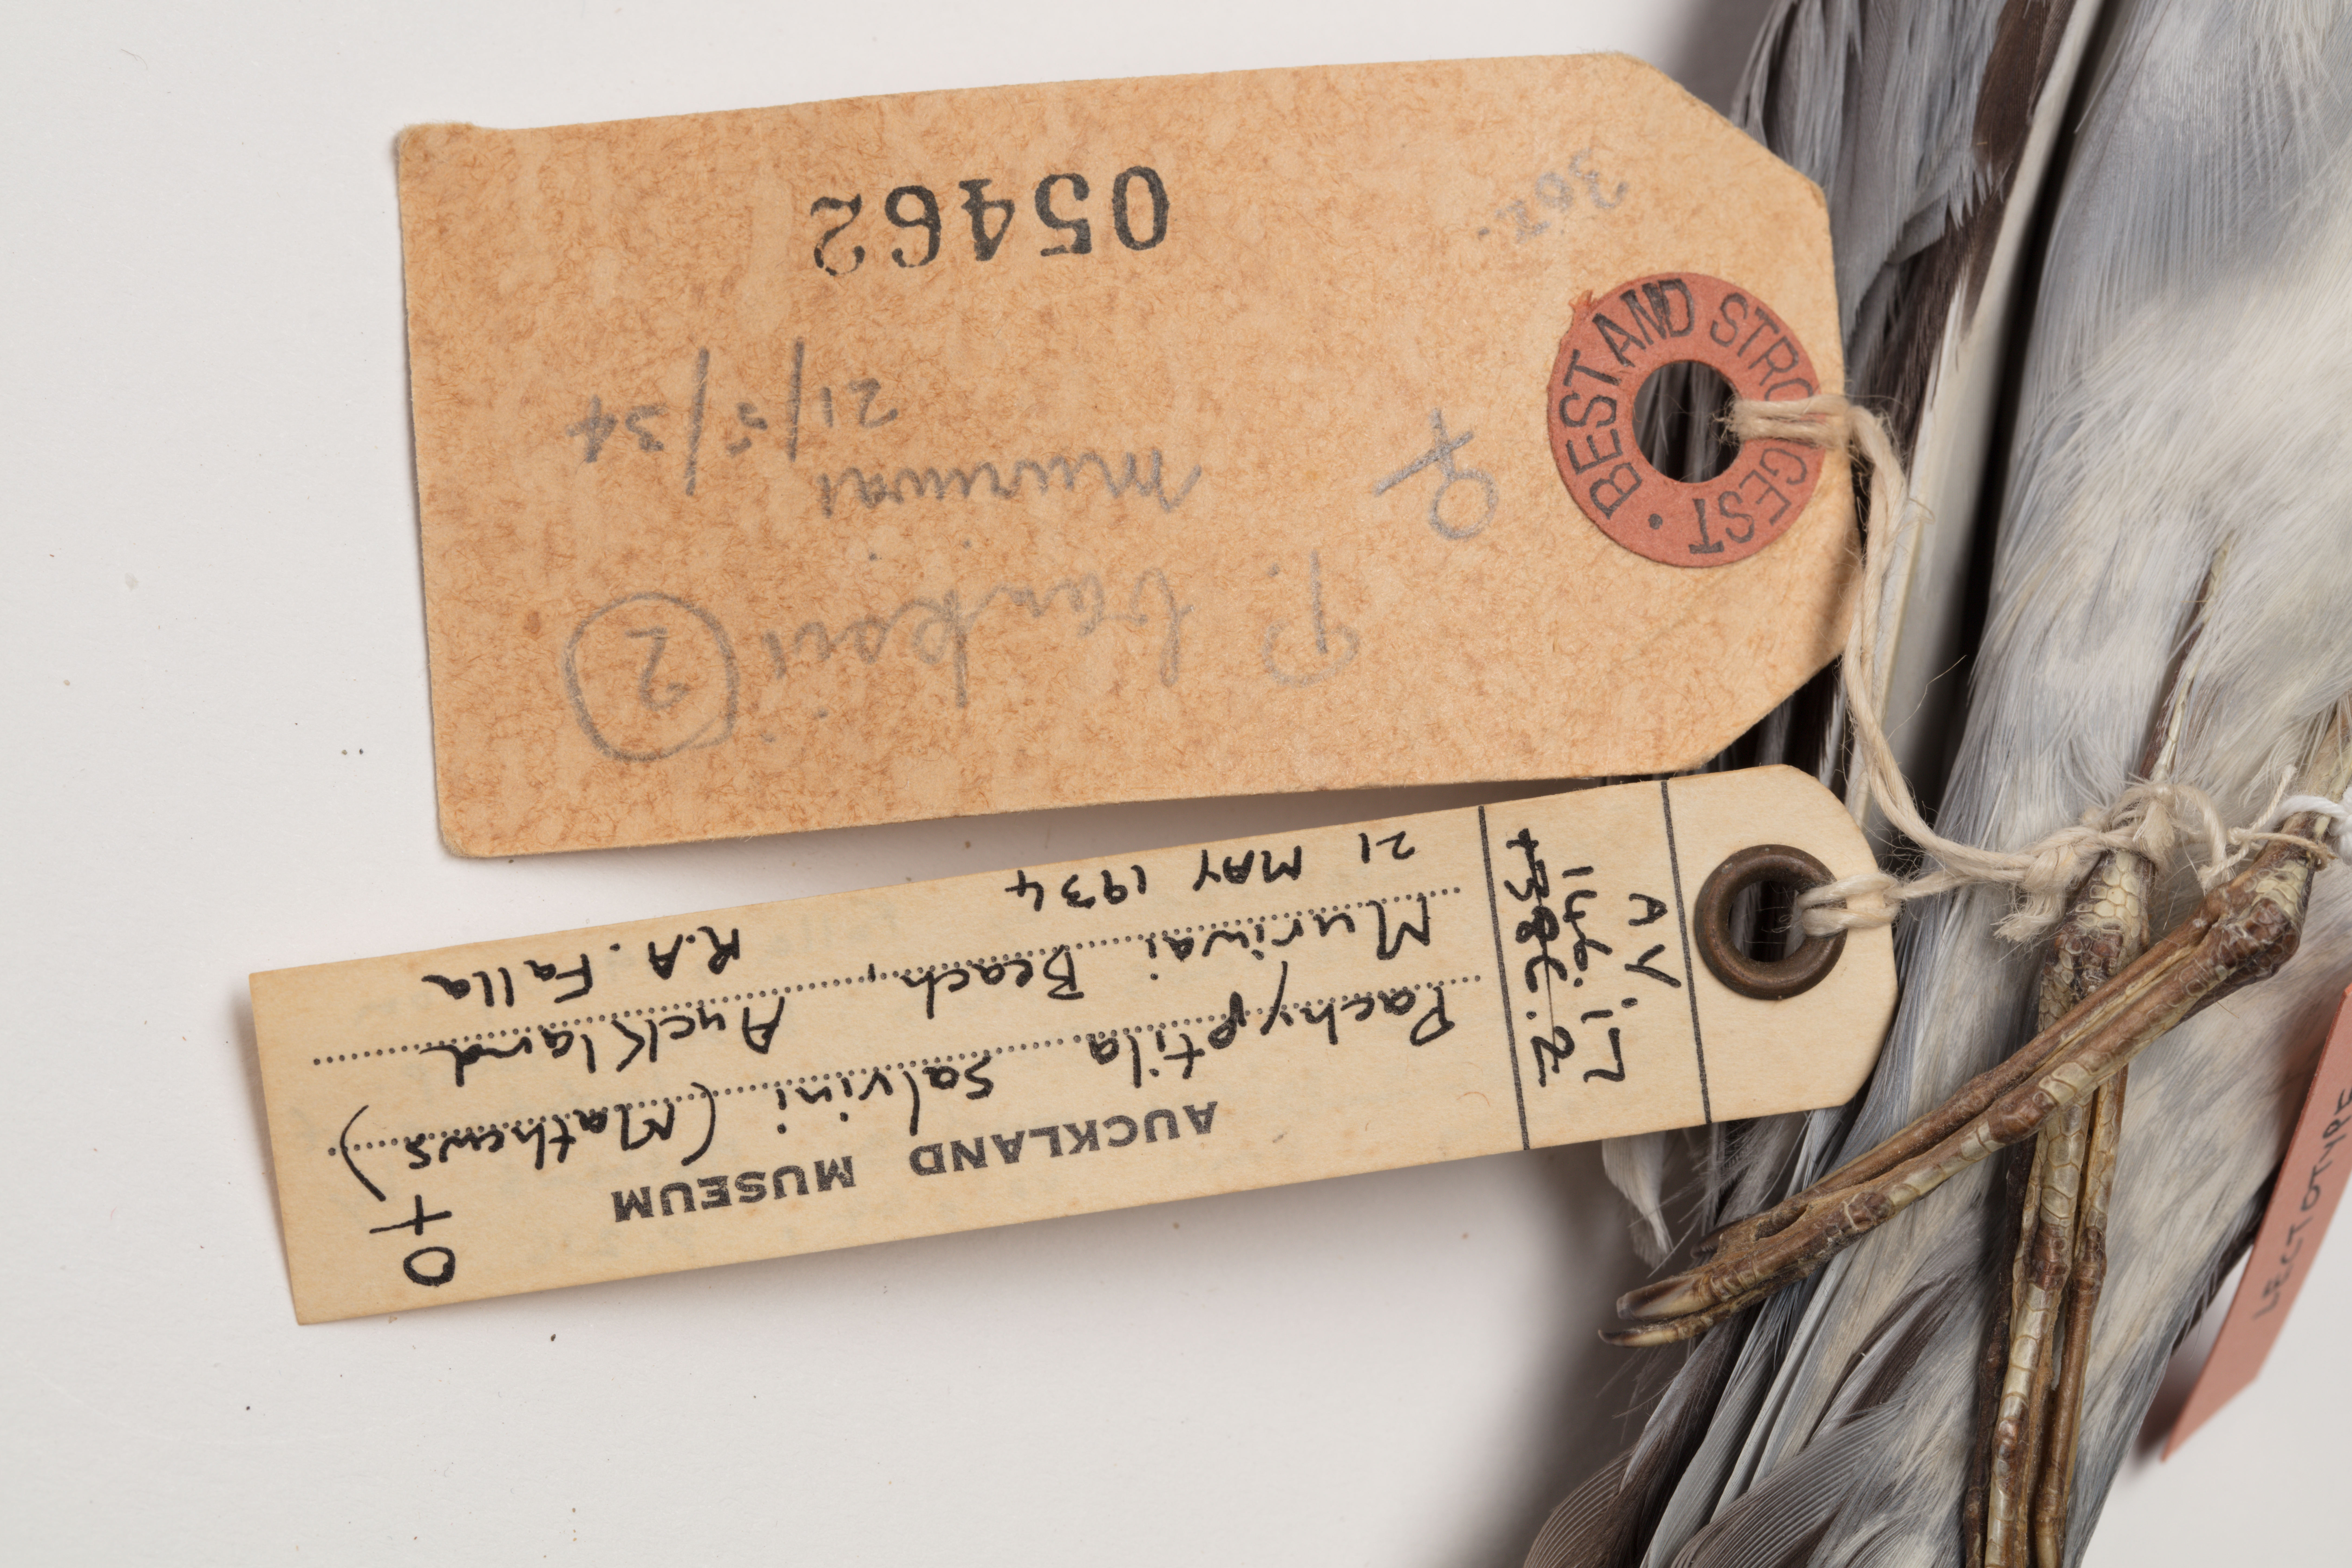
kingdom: Animalia
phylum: Chordata
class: Aves
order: Procellariiformes
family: Procellariidae
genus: Pachyptila
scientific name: Pachyptila salvini
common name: Salvin's prion
